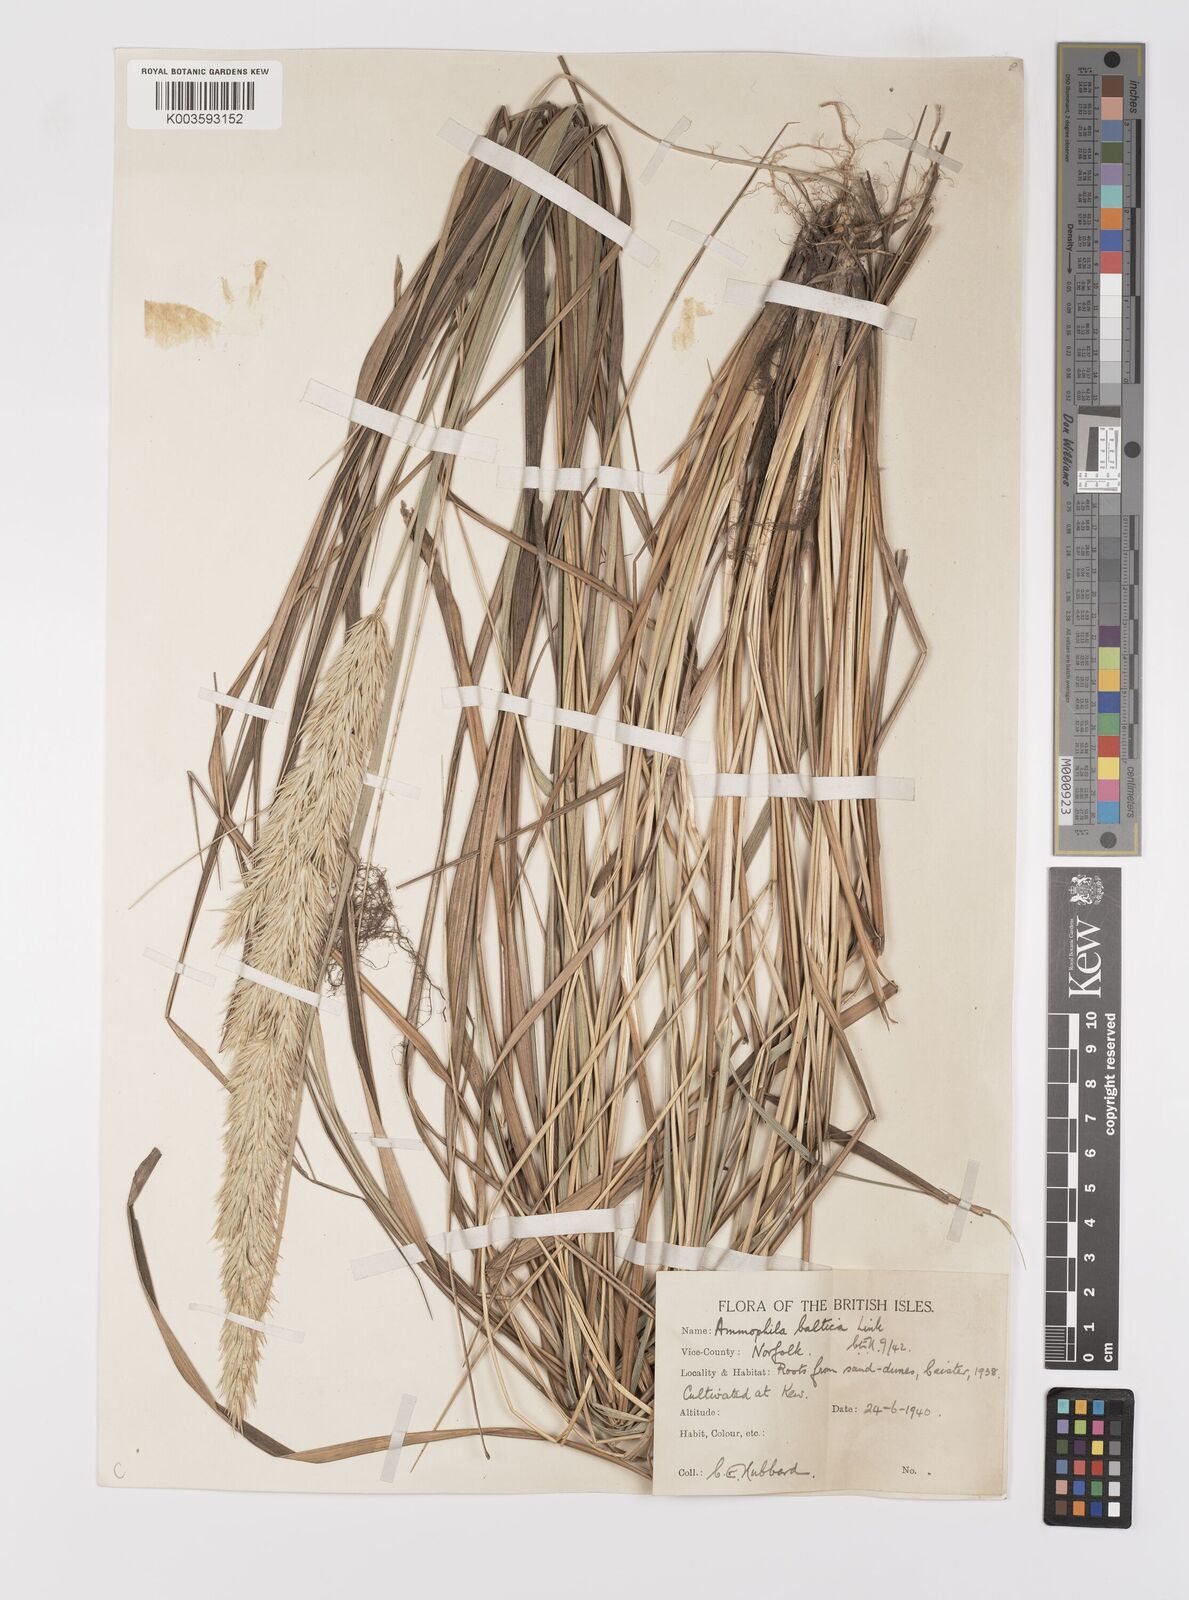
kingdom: Plantae
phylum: Tracheophyta
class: Liliopsida
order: Poales
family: Poaceae
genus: Calamagrostis
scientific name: Calamagrostis baltica
